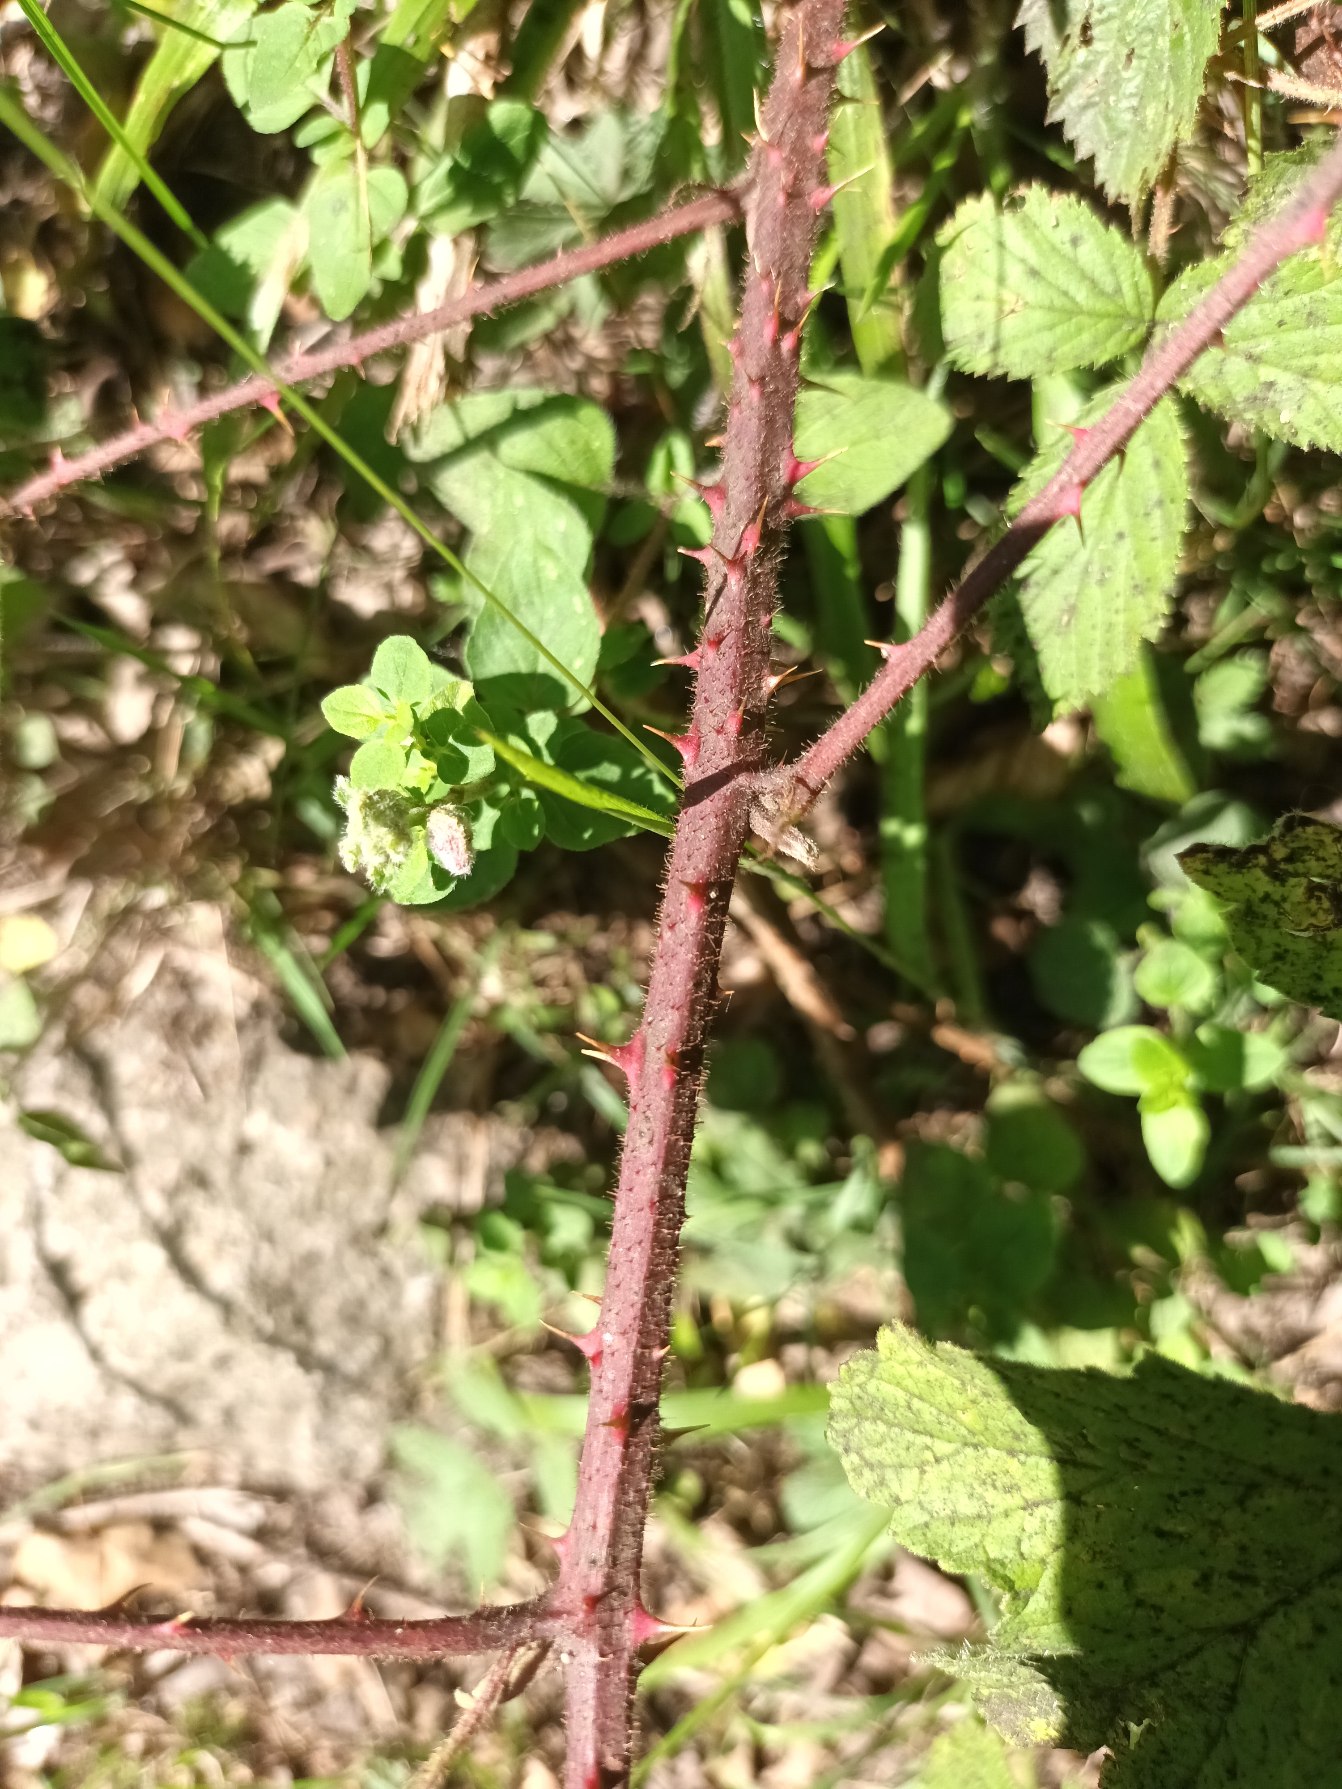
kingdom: Plantae
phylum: Tracheophyta
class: Magnoliopsida
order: Rosales
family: Rosaceae
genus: Rubus
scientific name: Rubus radula
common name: Rasperu brombær
